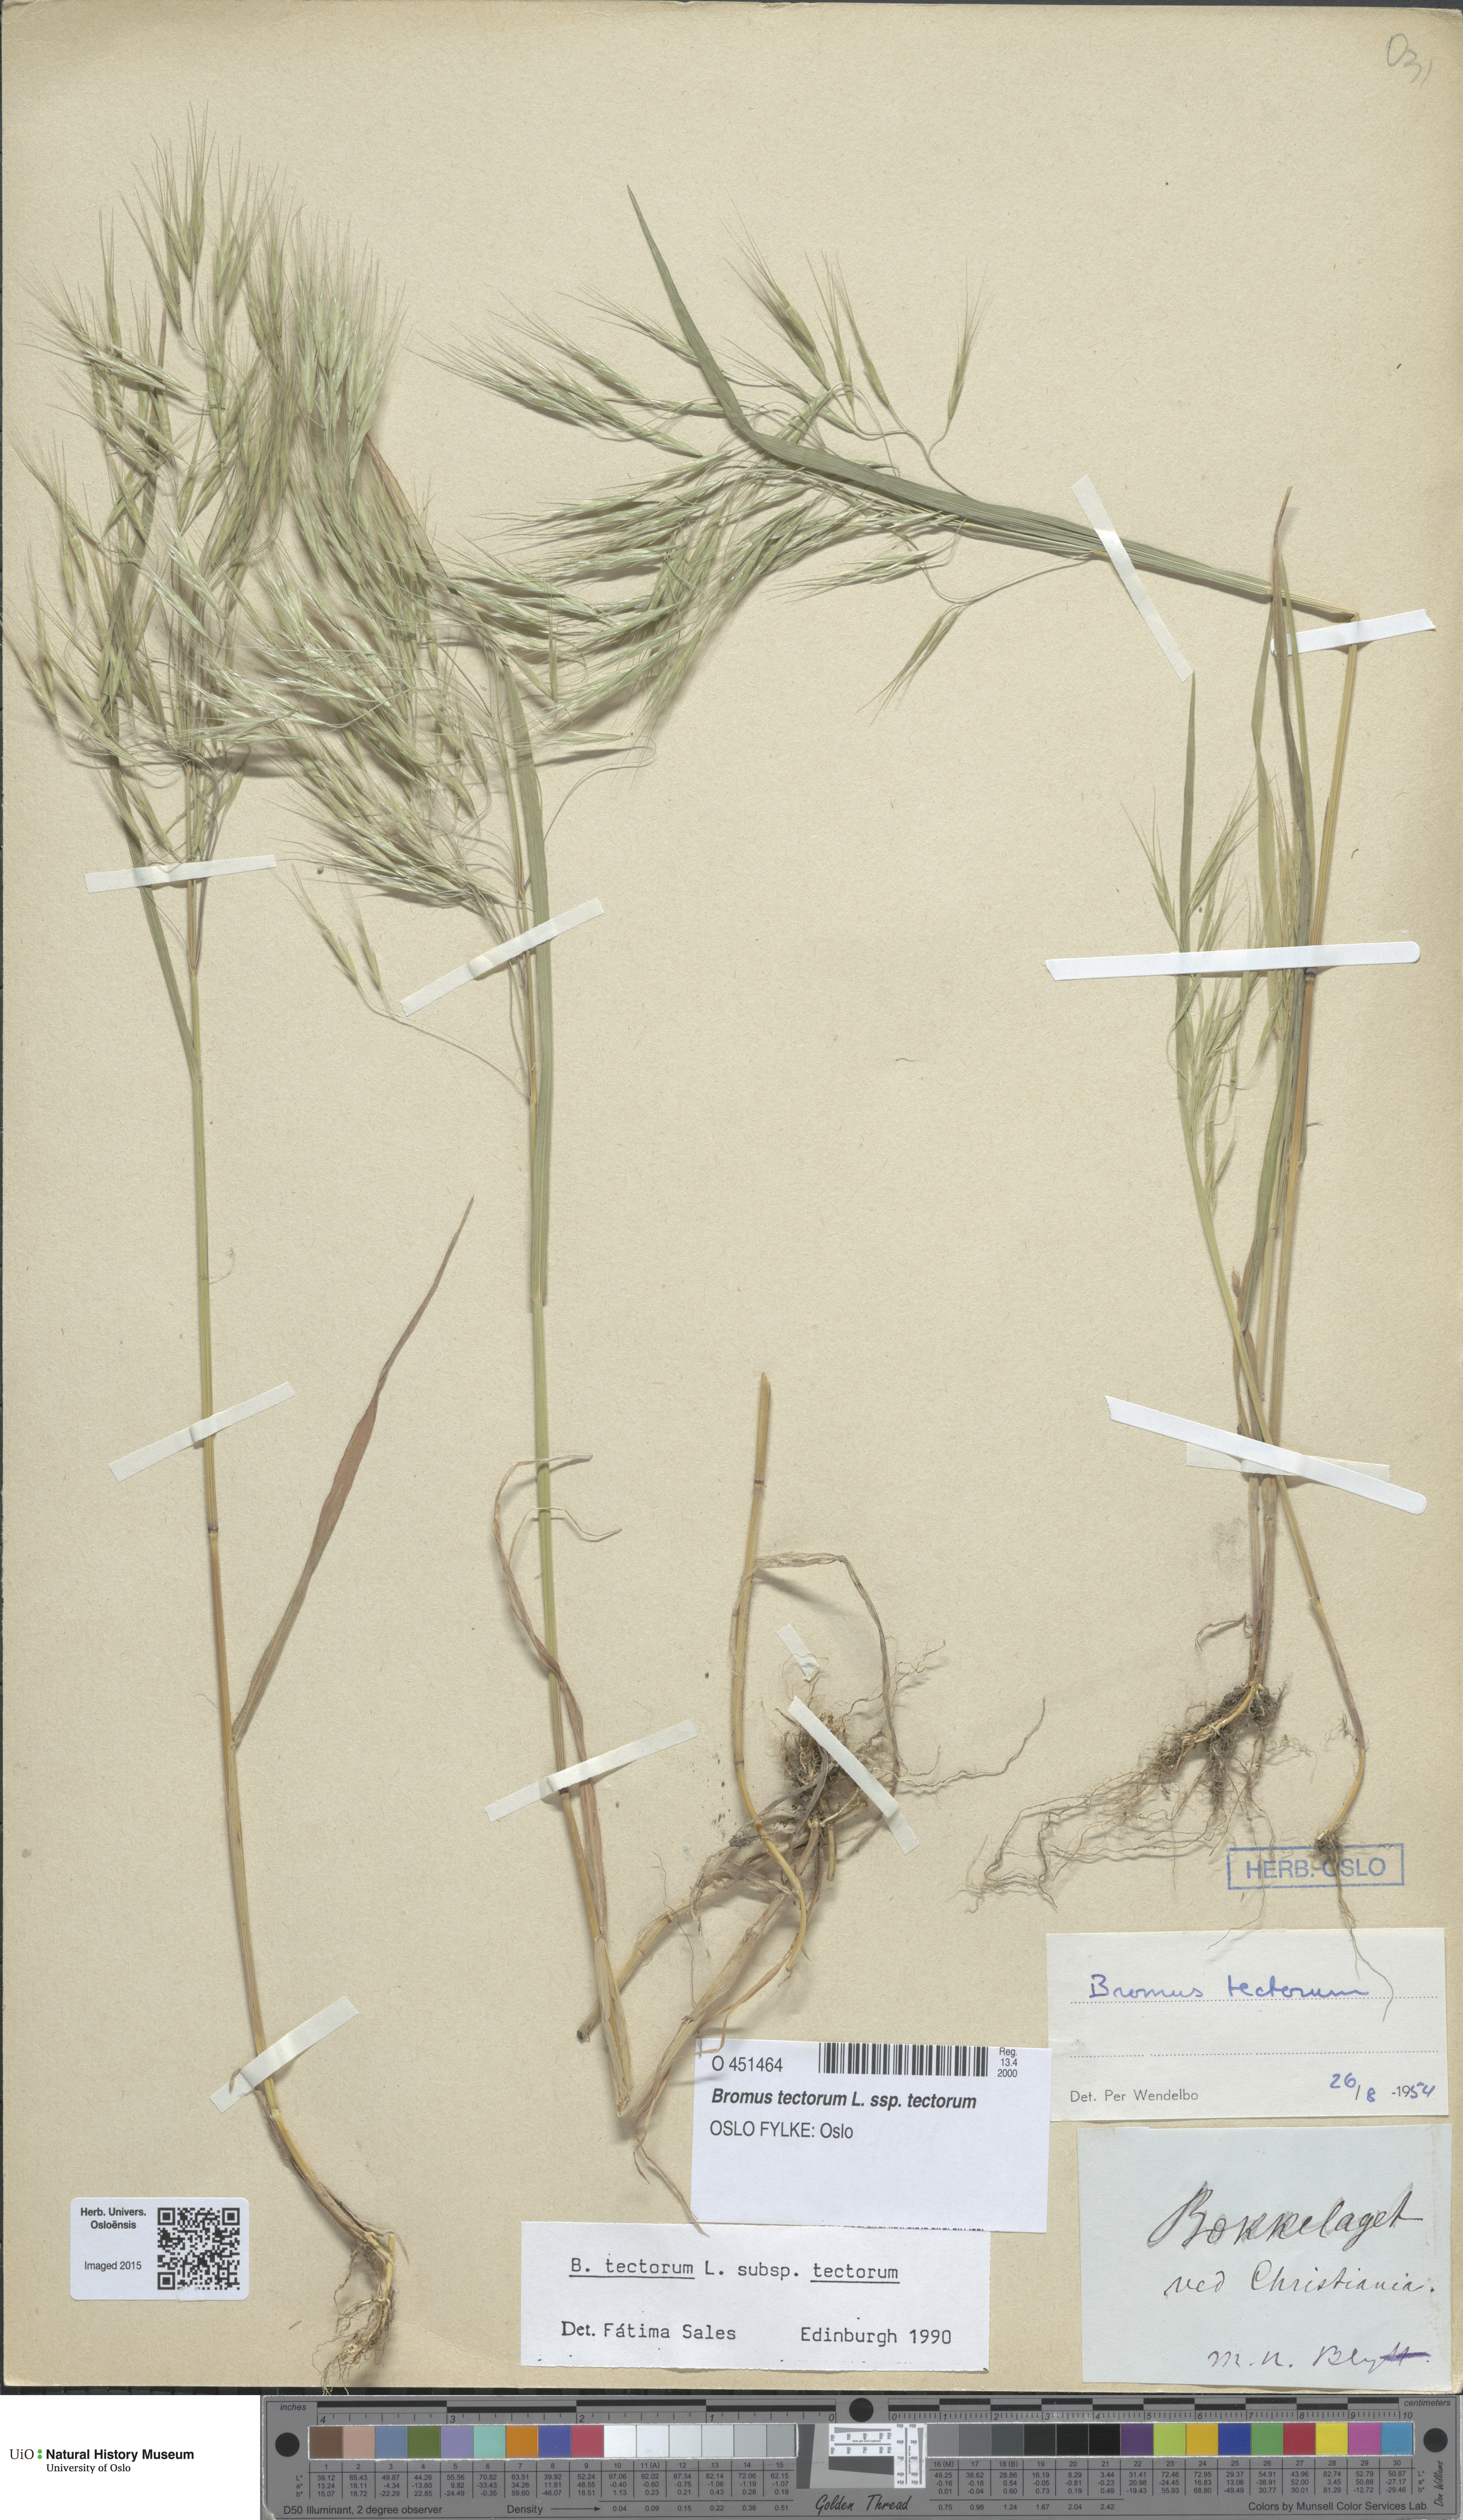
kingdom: Plantae
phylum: Tracheophyta
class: Liliopsida
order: Poales
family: Poaceae
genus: Bromus
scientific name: Bromus tectorum
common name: Cheatgrass
